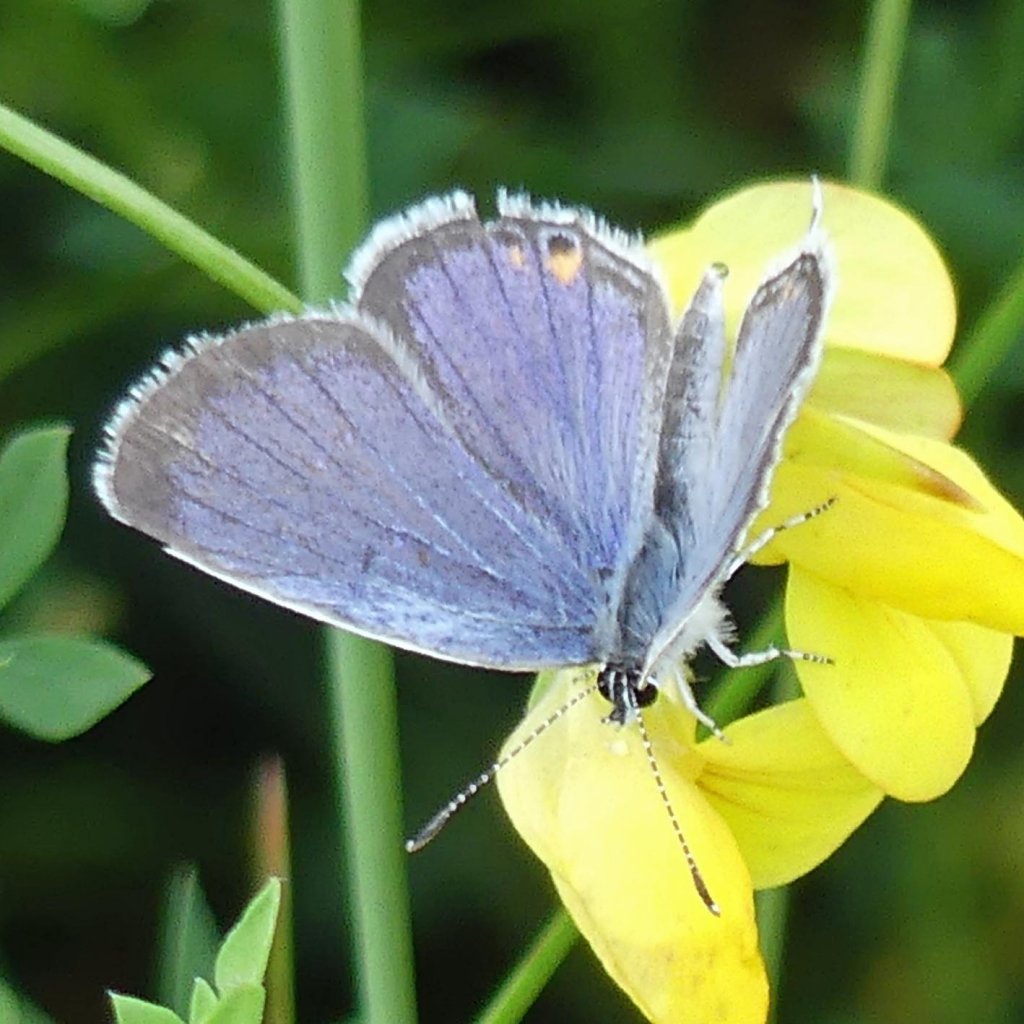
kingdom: Animalia
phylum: Arthropoda
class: Insecta
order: Lepidoptera
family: Lycaenidae
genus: Elkalyce
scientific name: Elkalyce comyntas
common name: Eastern Tailed-Blue
